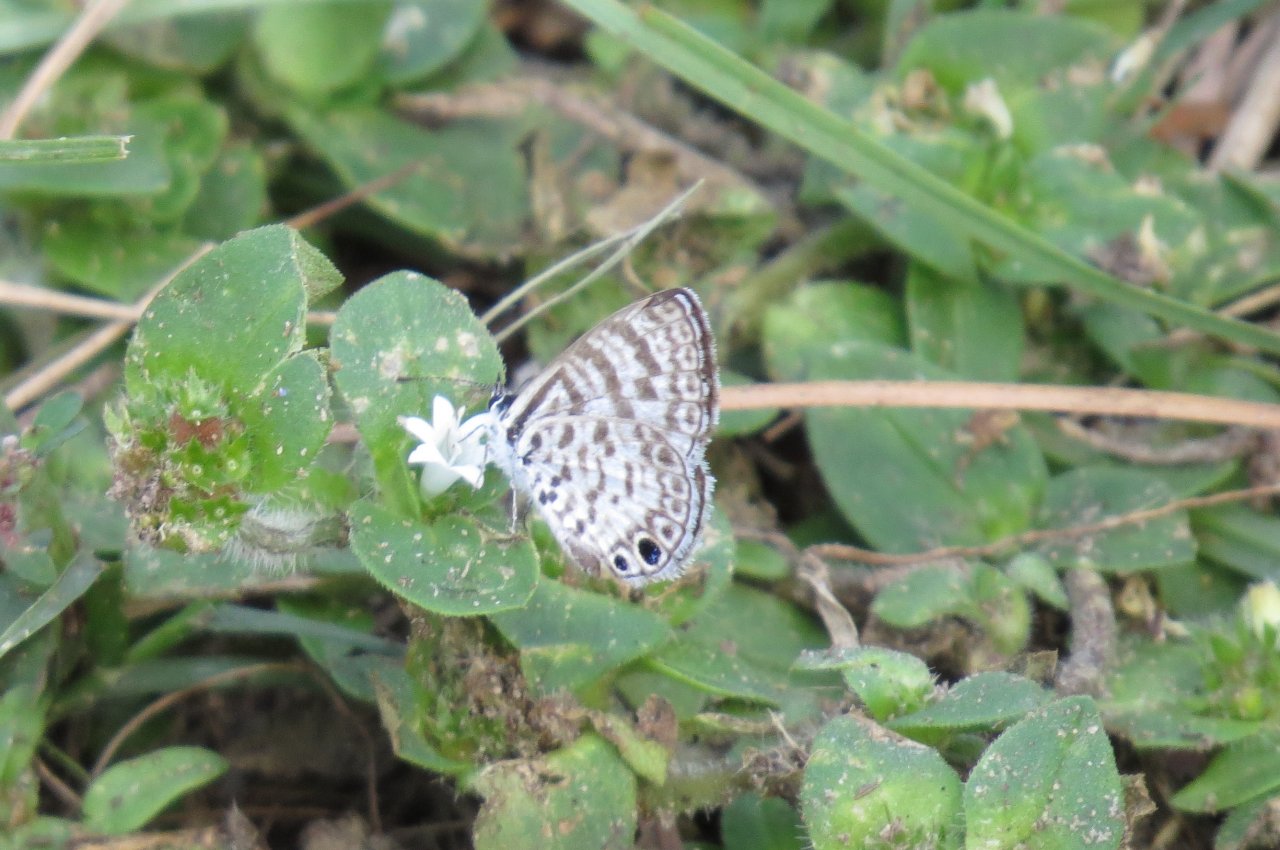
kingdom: Animalia
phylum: Arthropoda
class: Insecta
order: Lepidoptera
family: Lycaenidae
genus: Leptotes
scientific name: Leptotes cassius
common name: Cassius Blue
